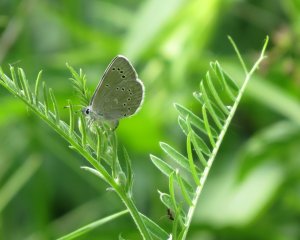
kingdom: Animalia
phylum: Arthropoda
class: Insecta
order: Lepidoptera
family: Lycaenidae
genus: Glaucopsyche
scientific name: Glaucopsyche lygdamus
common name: Silvery Blue
